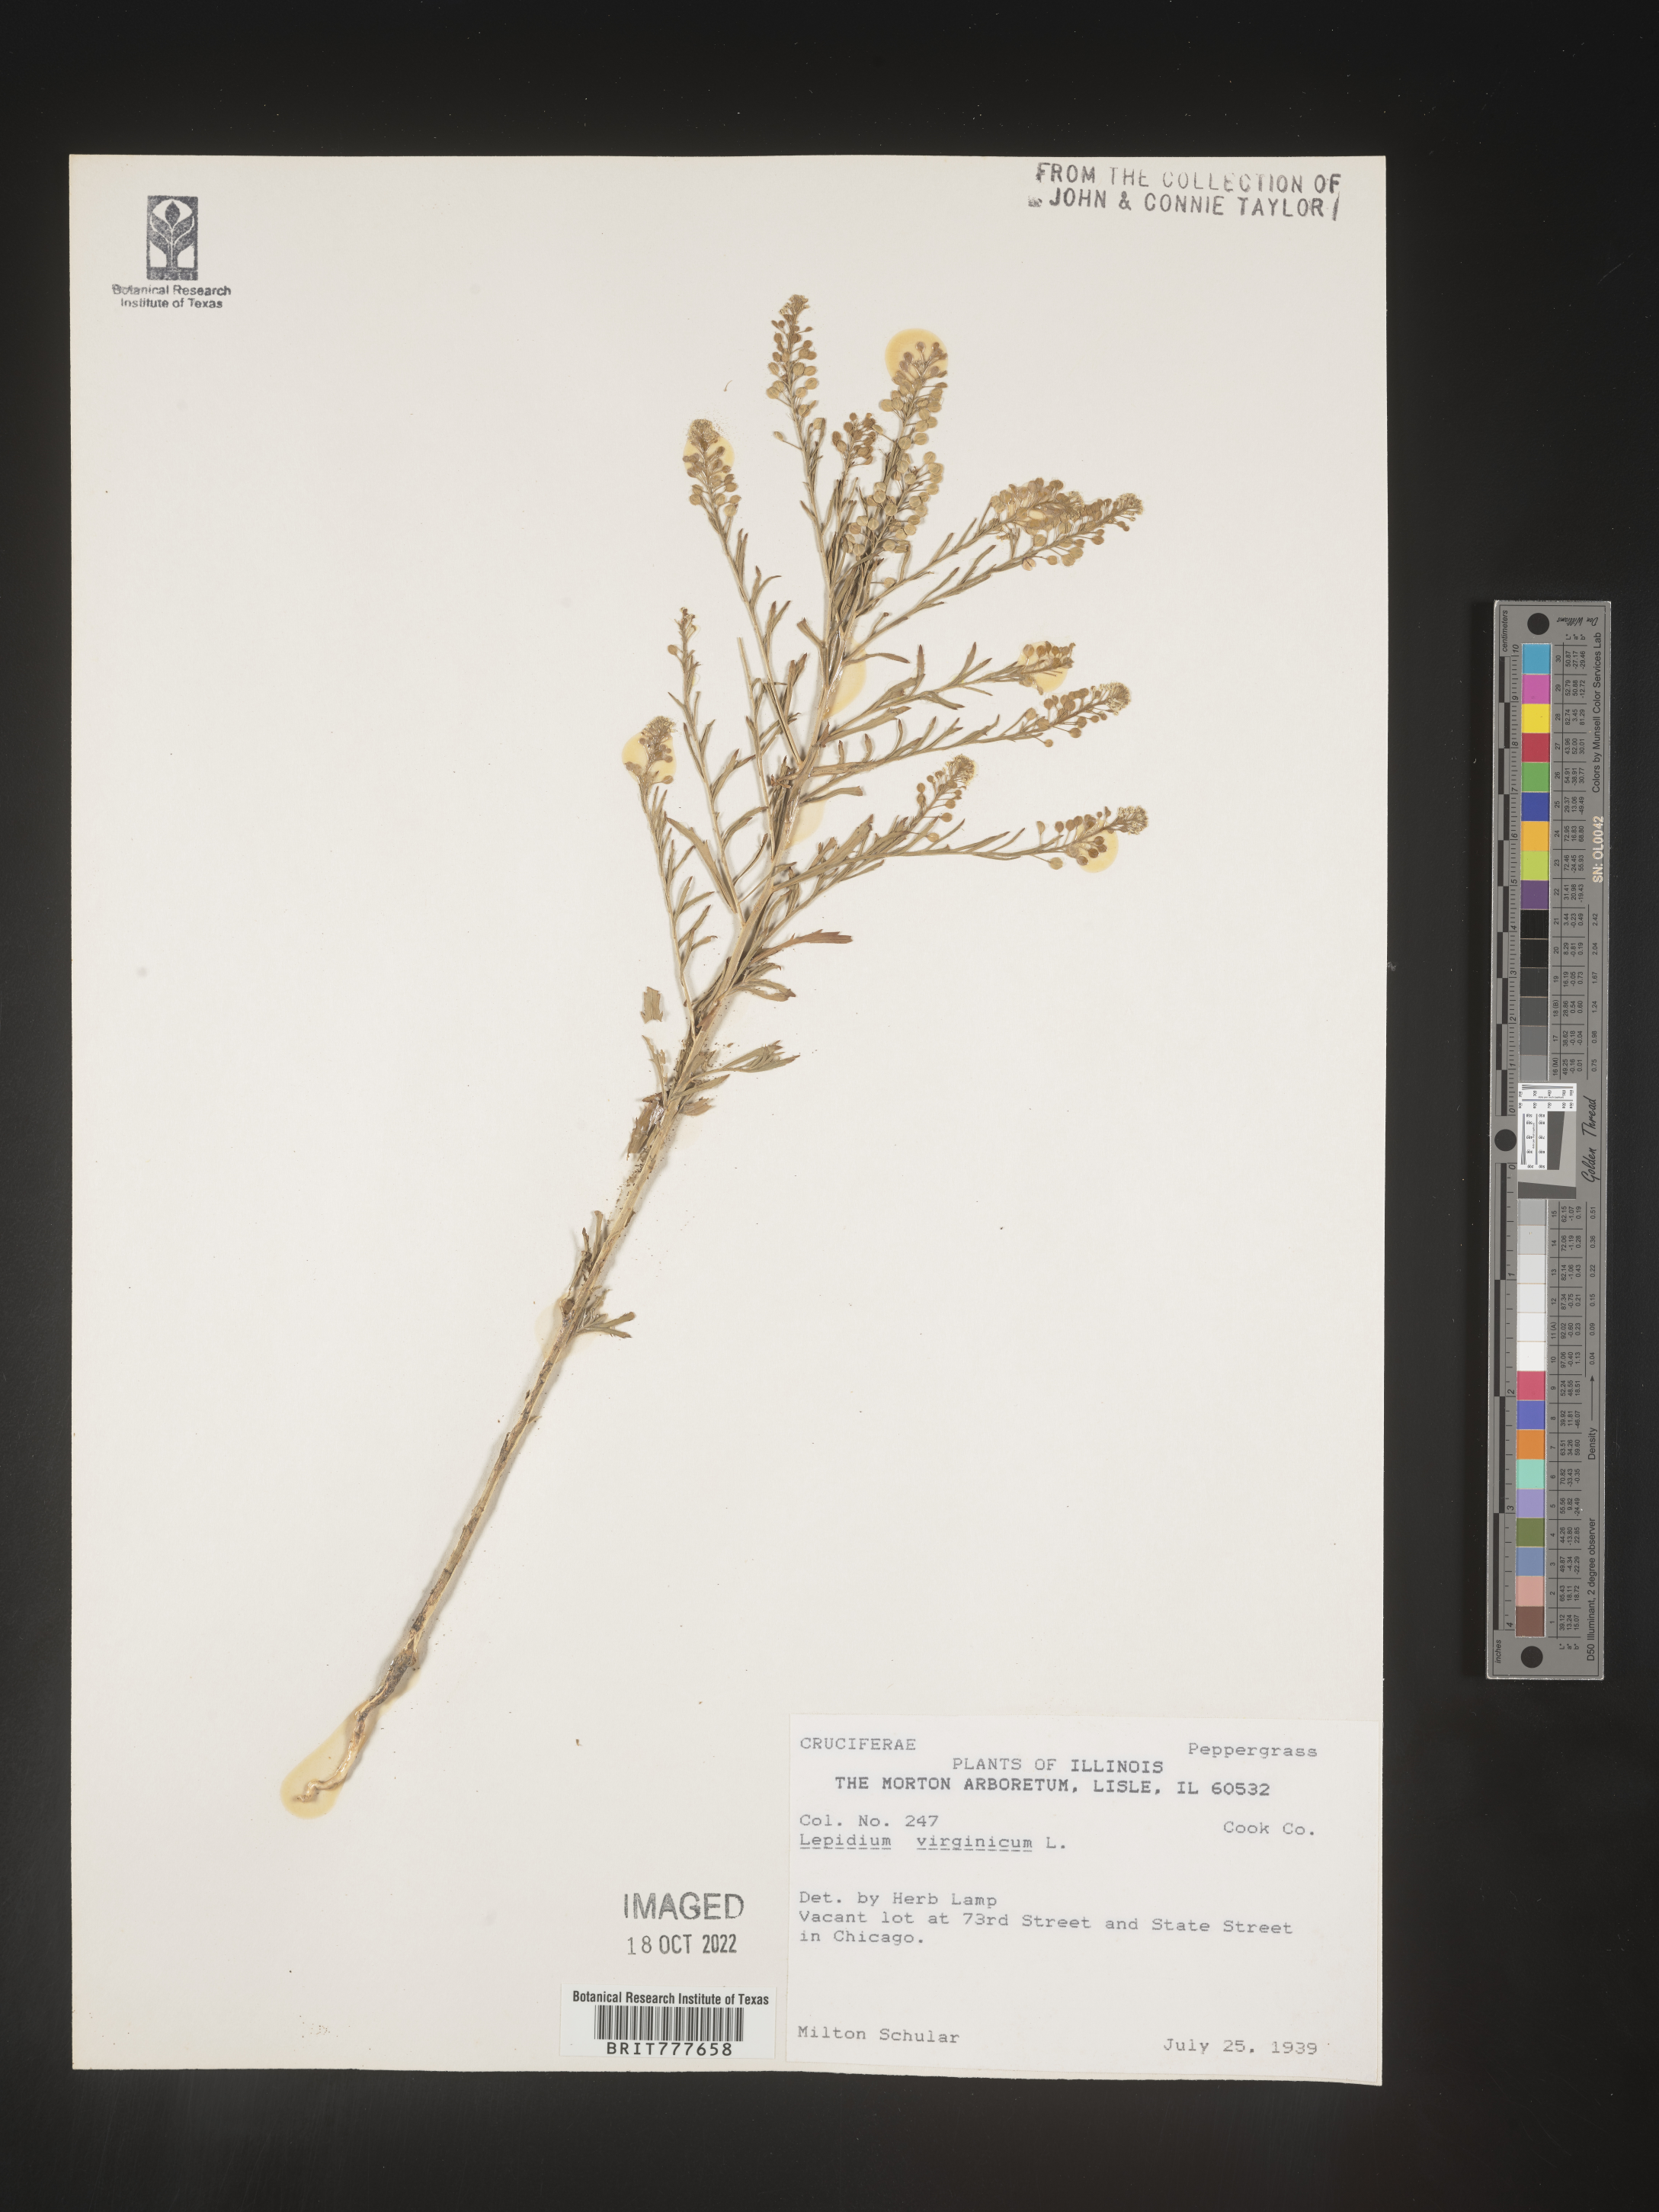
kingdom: Plantae
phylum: Tracheophyta
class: Magnoliopsida
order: Brassicales
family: Brassicaceae
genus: Lepidium
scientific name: Lepidium virginicum
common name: Least pepperwort
